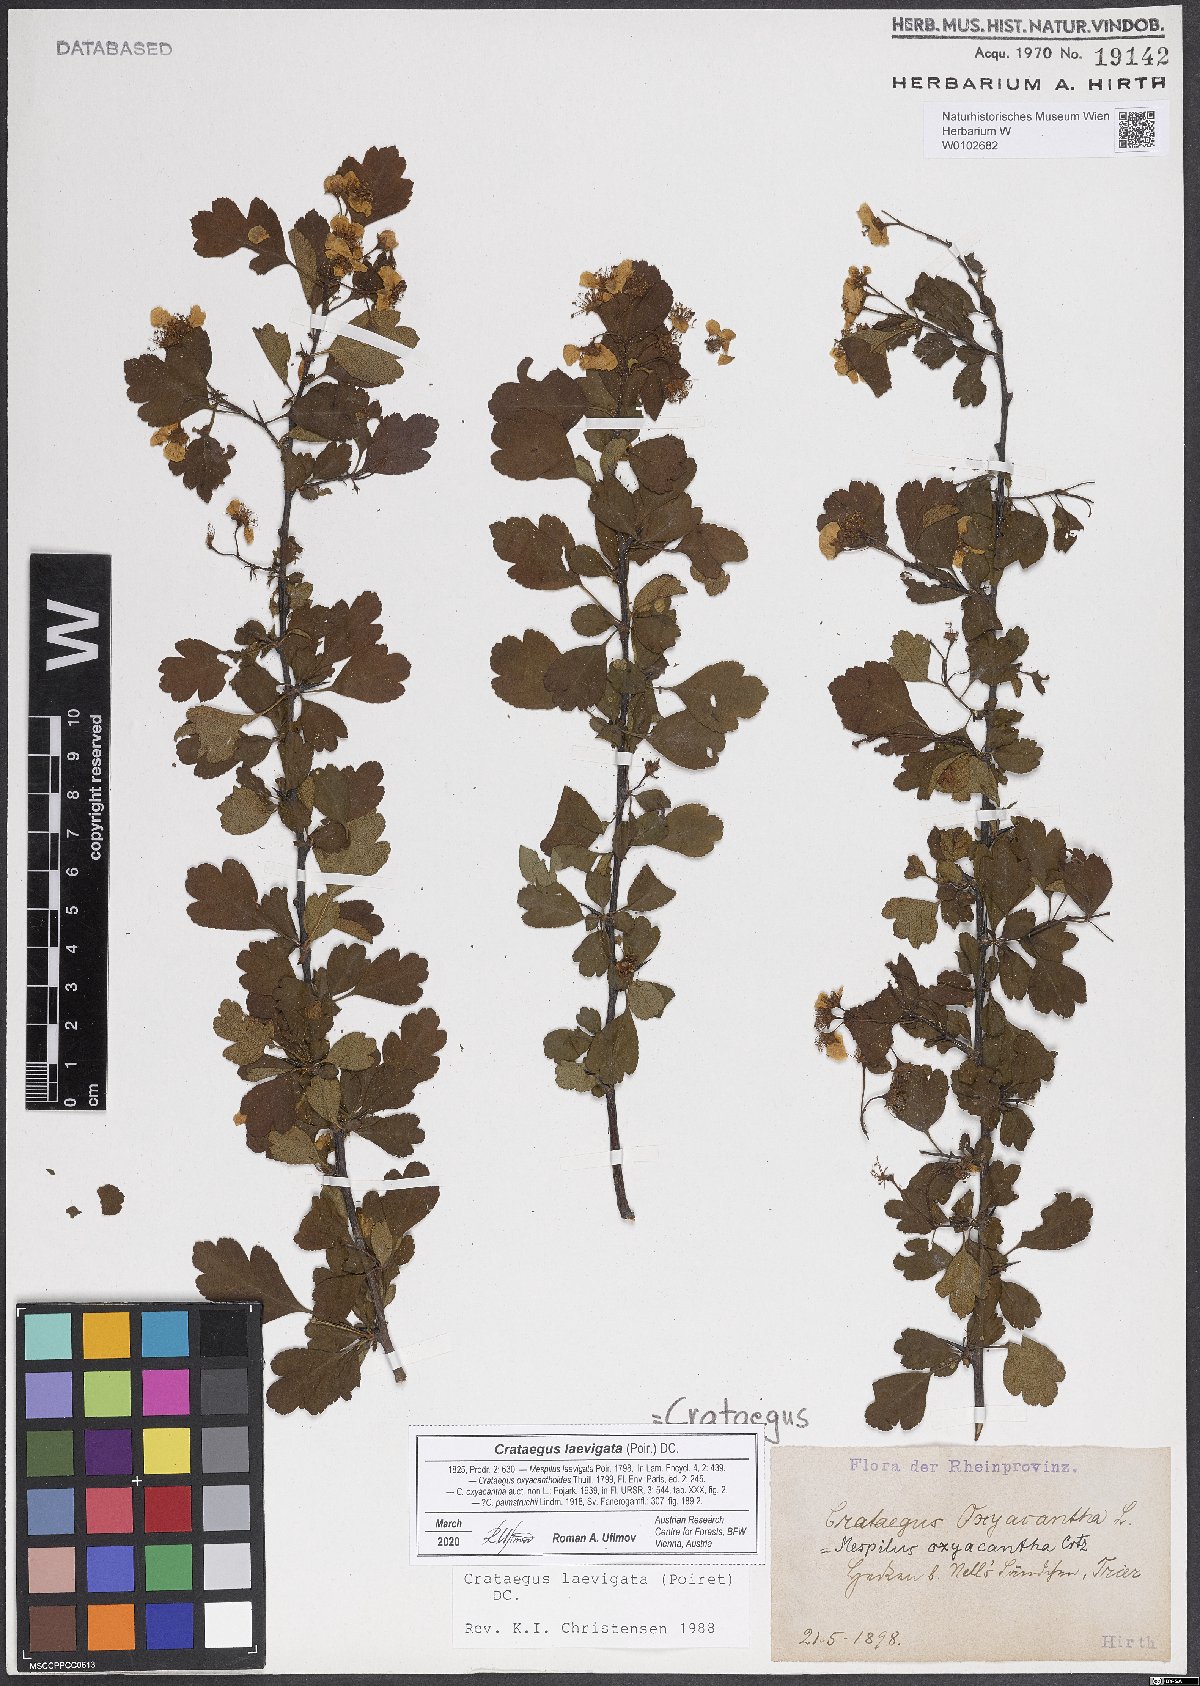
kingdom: Plantae
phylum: Tracheophyta
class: Magnoliopsida
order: Rosales
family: Rosaceae
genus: Crataegus
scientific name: Crataegus laevigata
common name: Midland hawthorn
